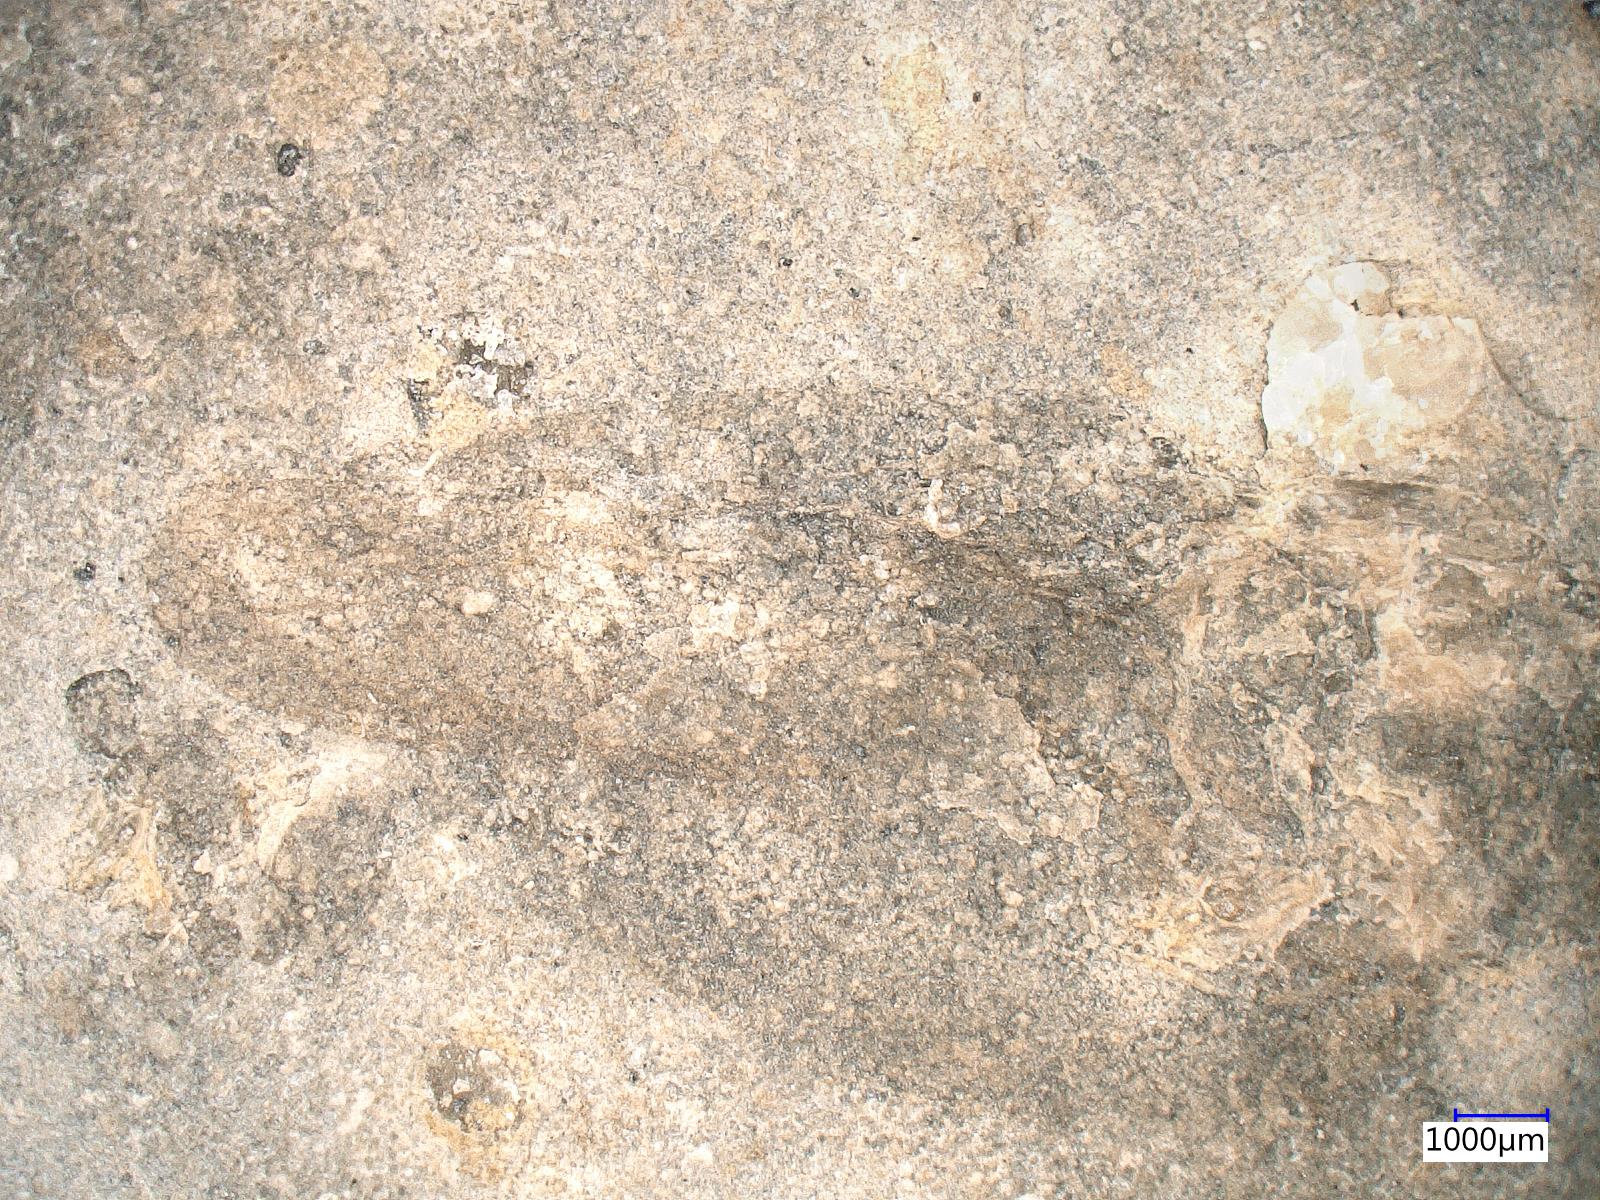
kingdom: Animalia
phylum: Arthropoda
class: Insecta
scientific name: Insecta
